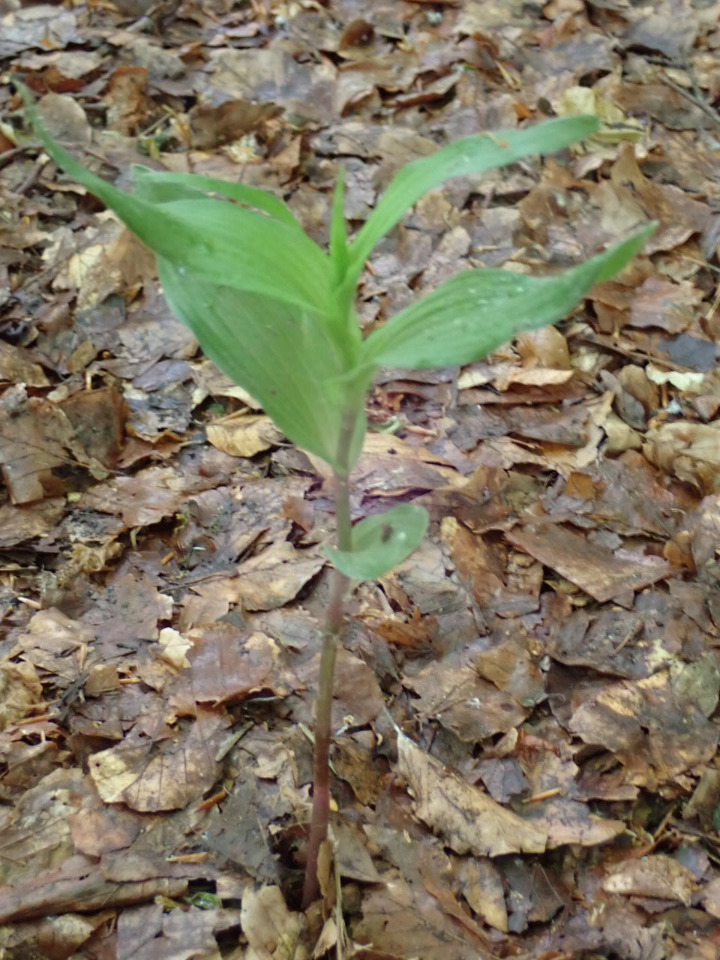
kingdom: Plantae
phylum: Tracheophyta
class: Liliopsida
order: Asparagales
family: Orchidaceae
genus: Epipactis
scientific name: Epipactis helleborine
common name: Skov-hullæbe
